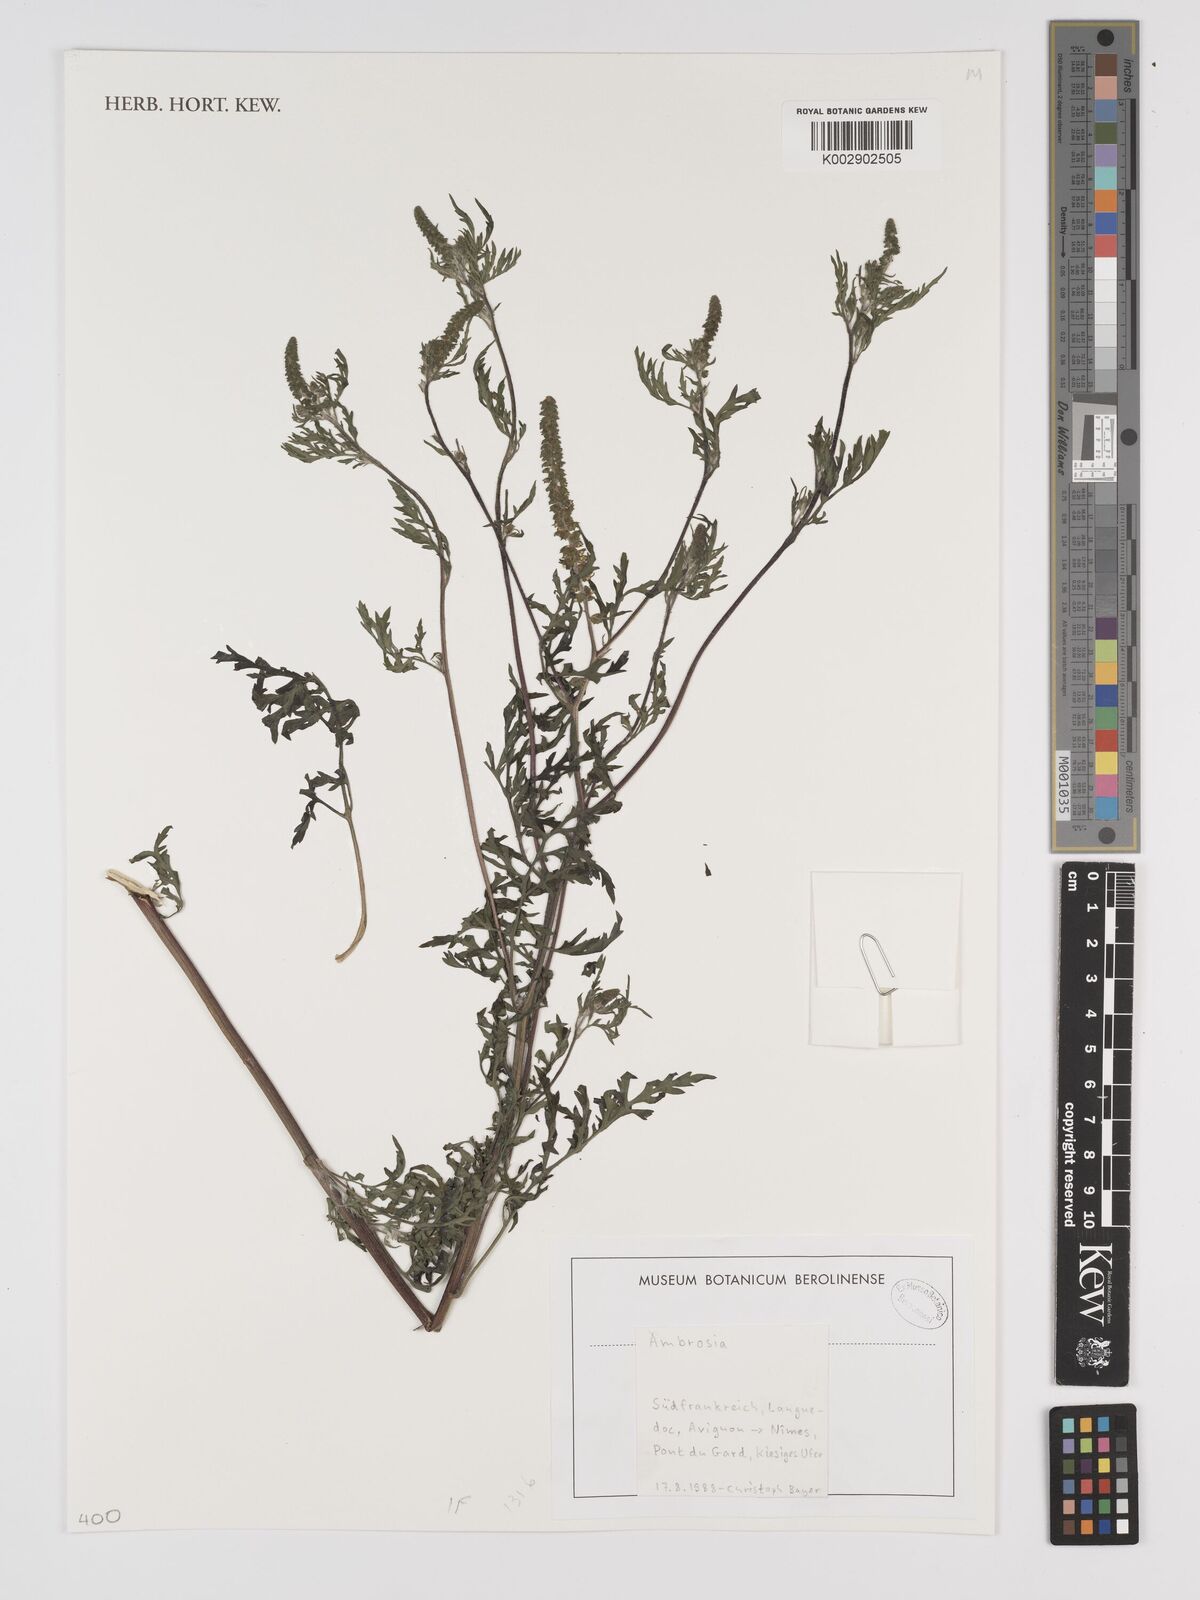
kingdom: Plantae
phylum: Tracheophyta
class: Magnoliopsida
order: Asterales
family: Asteraceae
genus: Ambrosia
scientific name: Ambrosia
